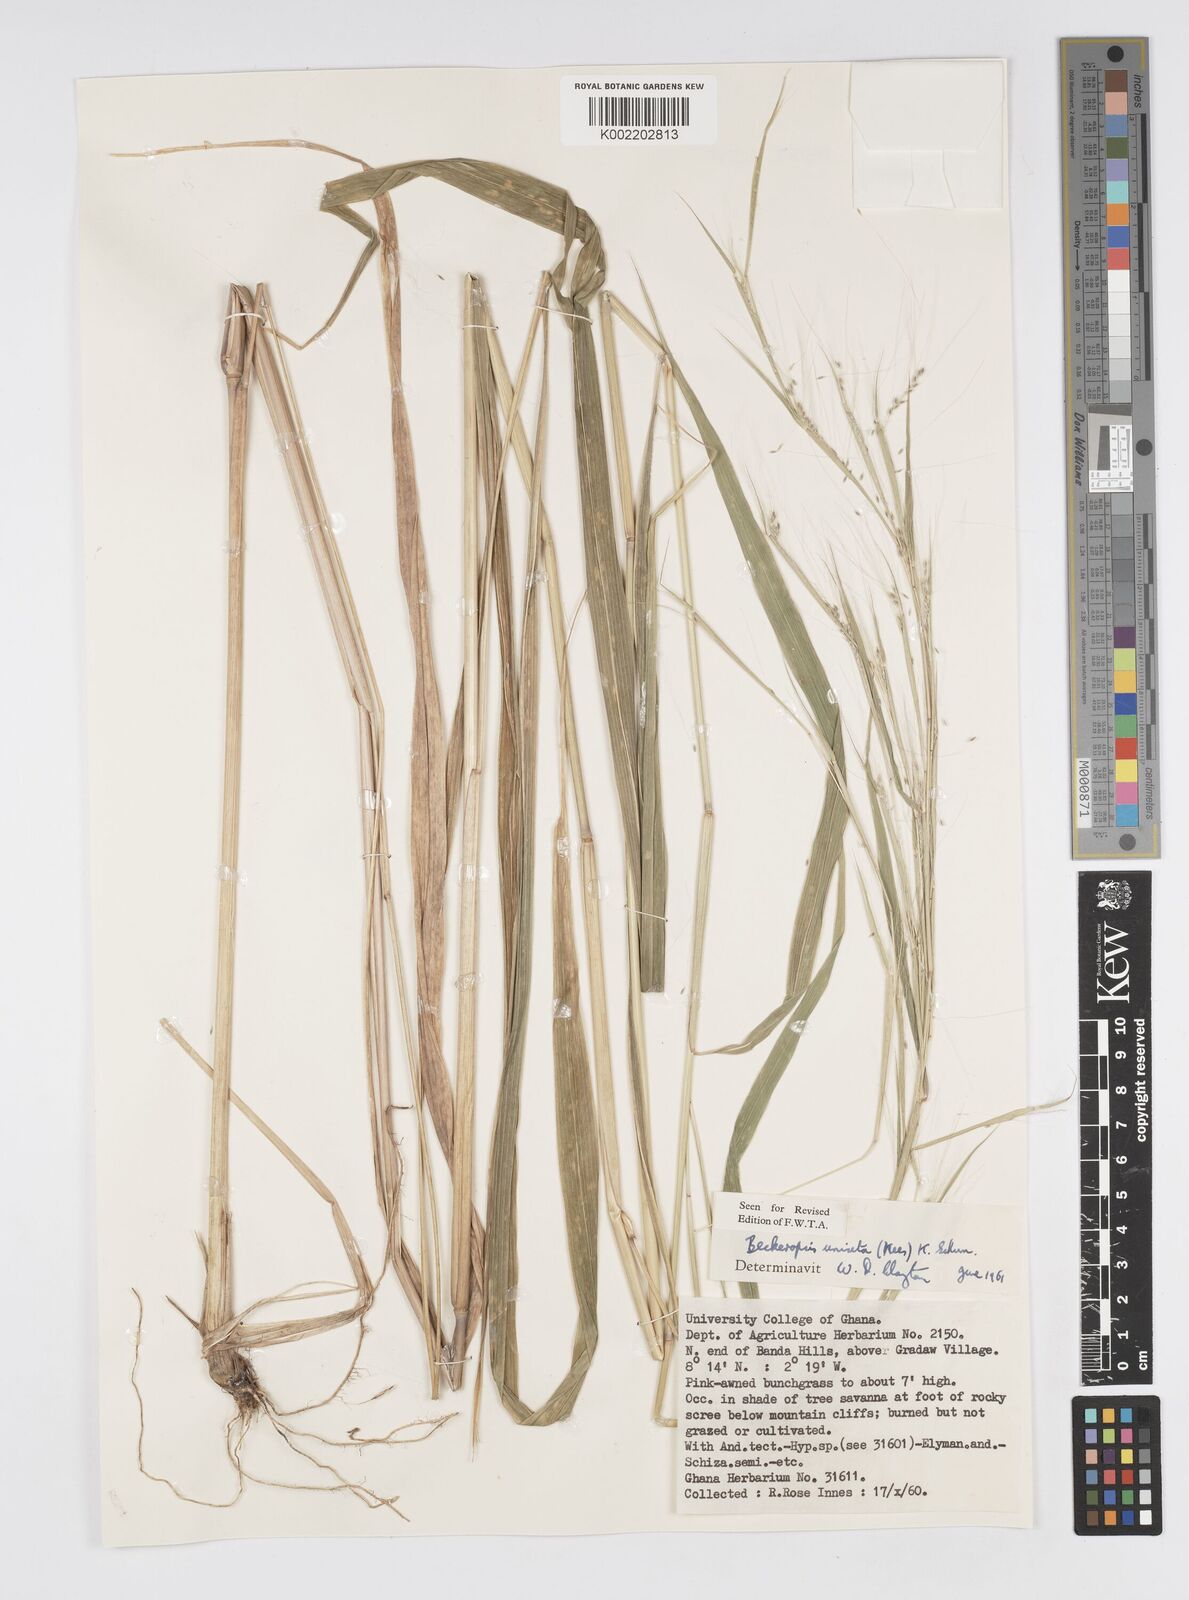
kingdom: Plantae
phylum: Tracheophyta
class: Liliopsida
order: Poales
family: Poaceae
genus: Cenchrus
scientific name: Cenchrus unisetus
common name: Natal grass
